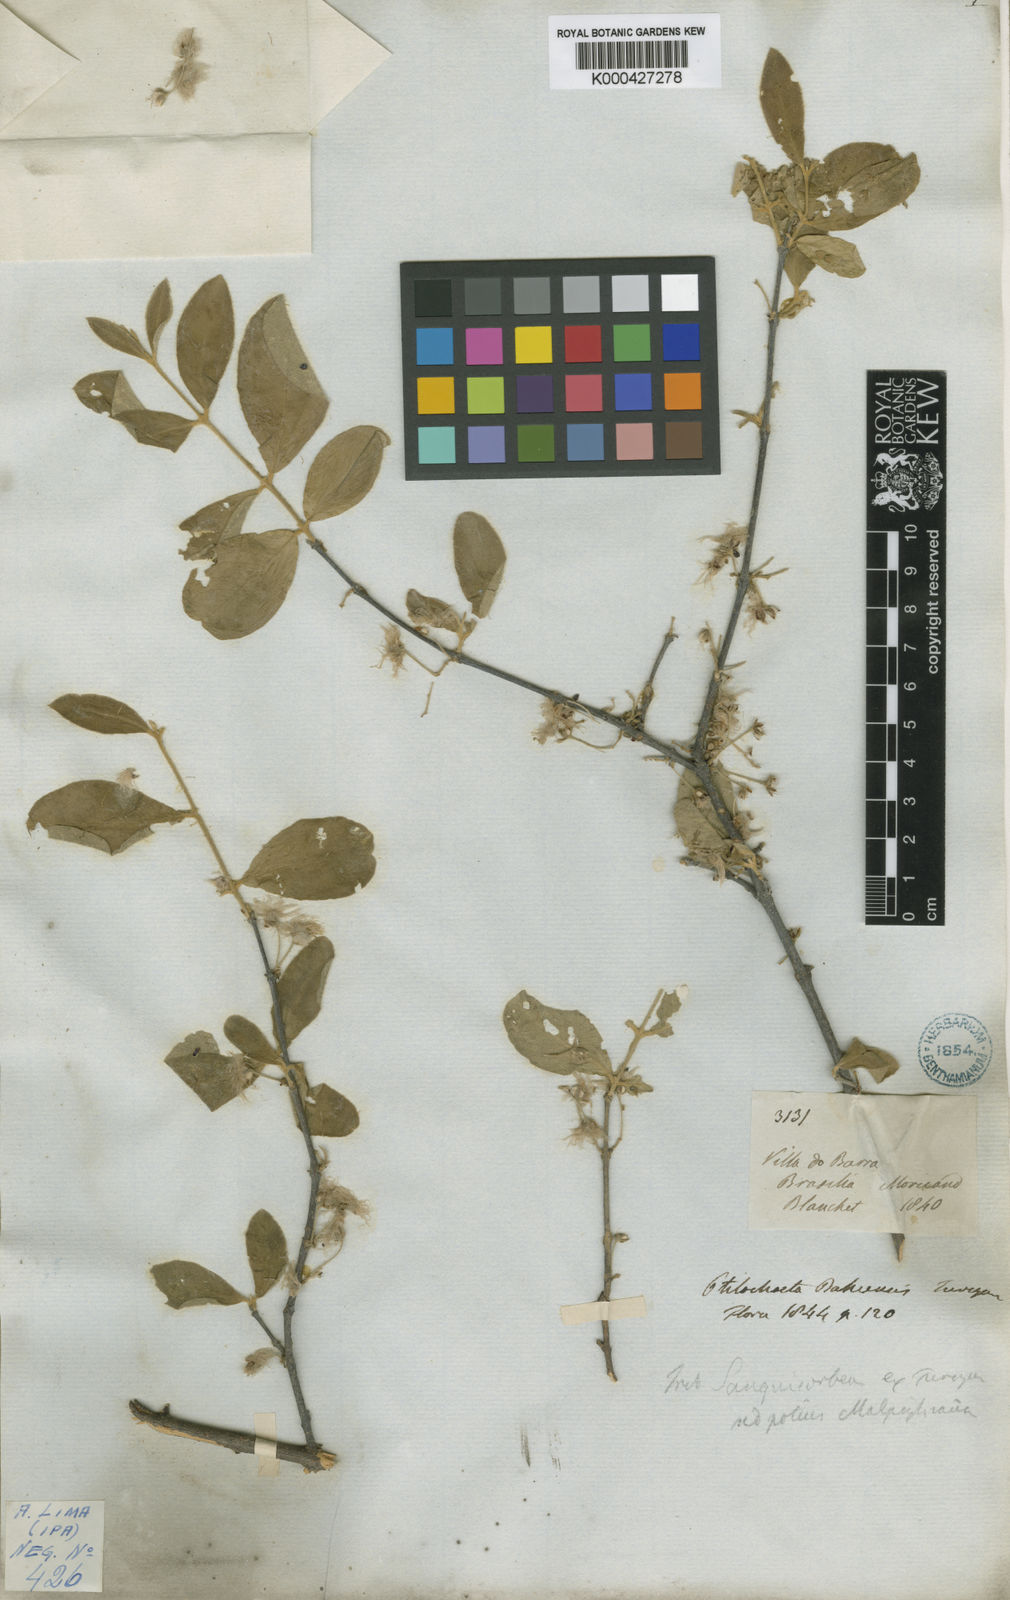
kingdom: Plantae
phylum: Tracheophyta
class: Magnoliopsida
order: Malpighiales
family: Malpighiaceae
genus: Ptilochaeta
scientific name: Ptilochaeta bahiensis
